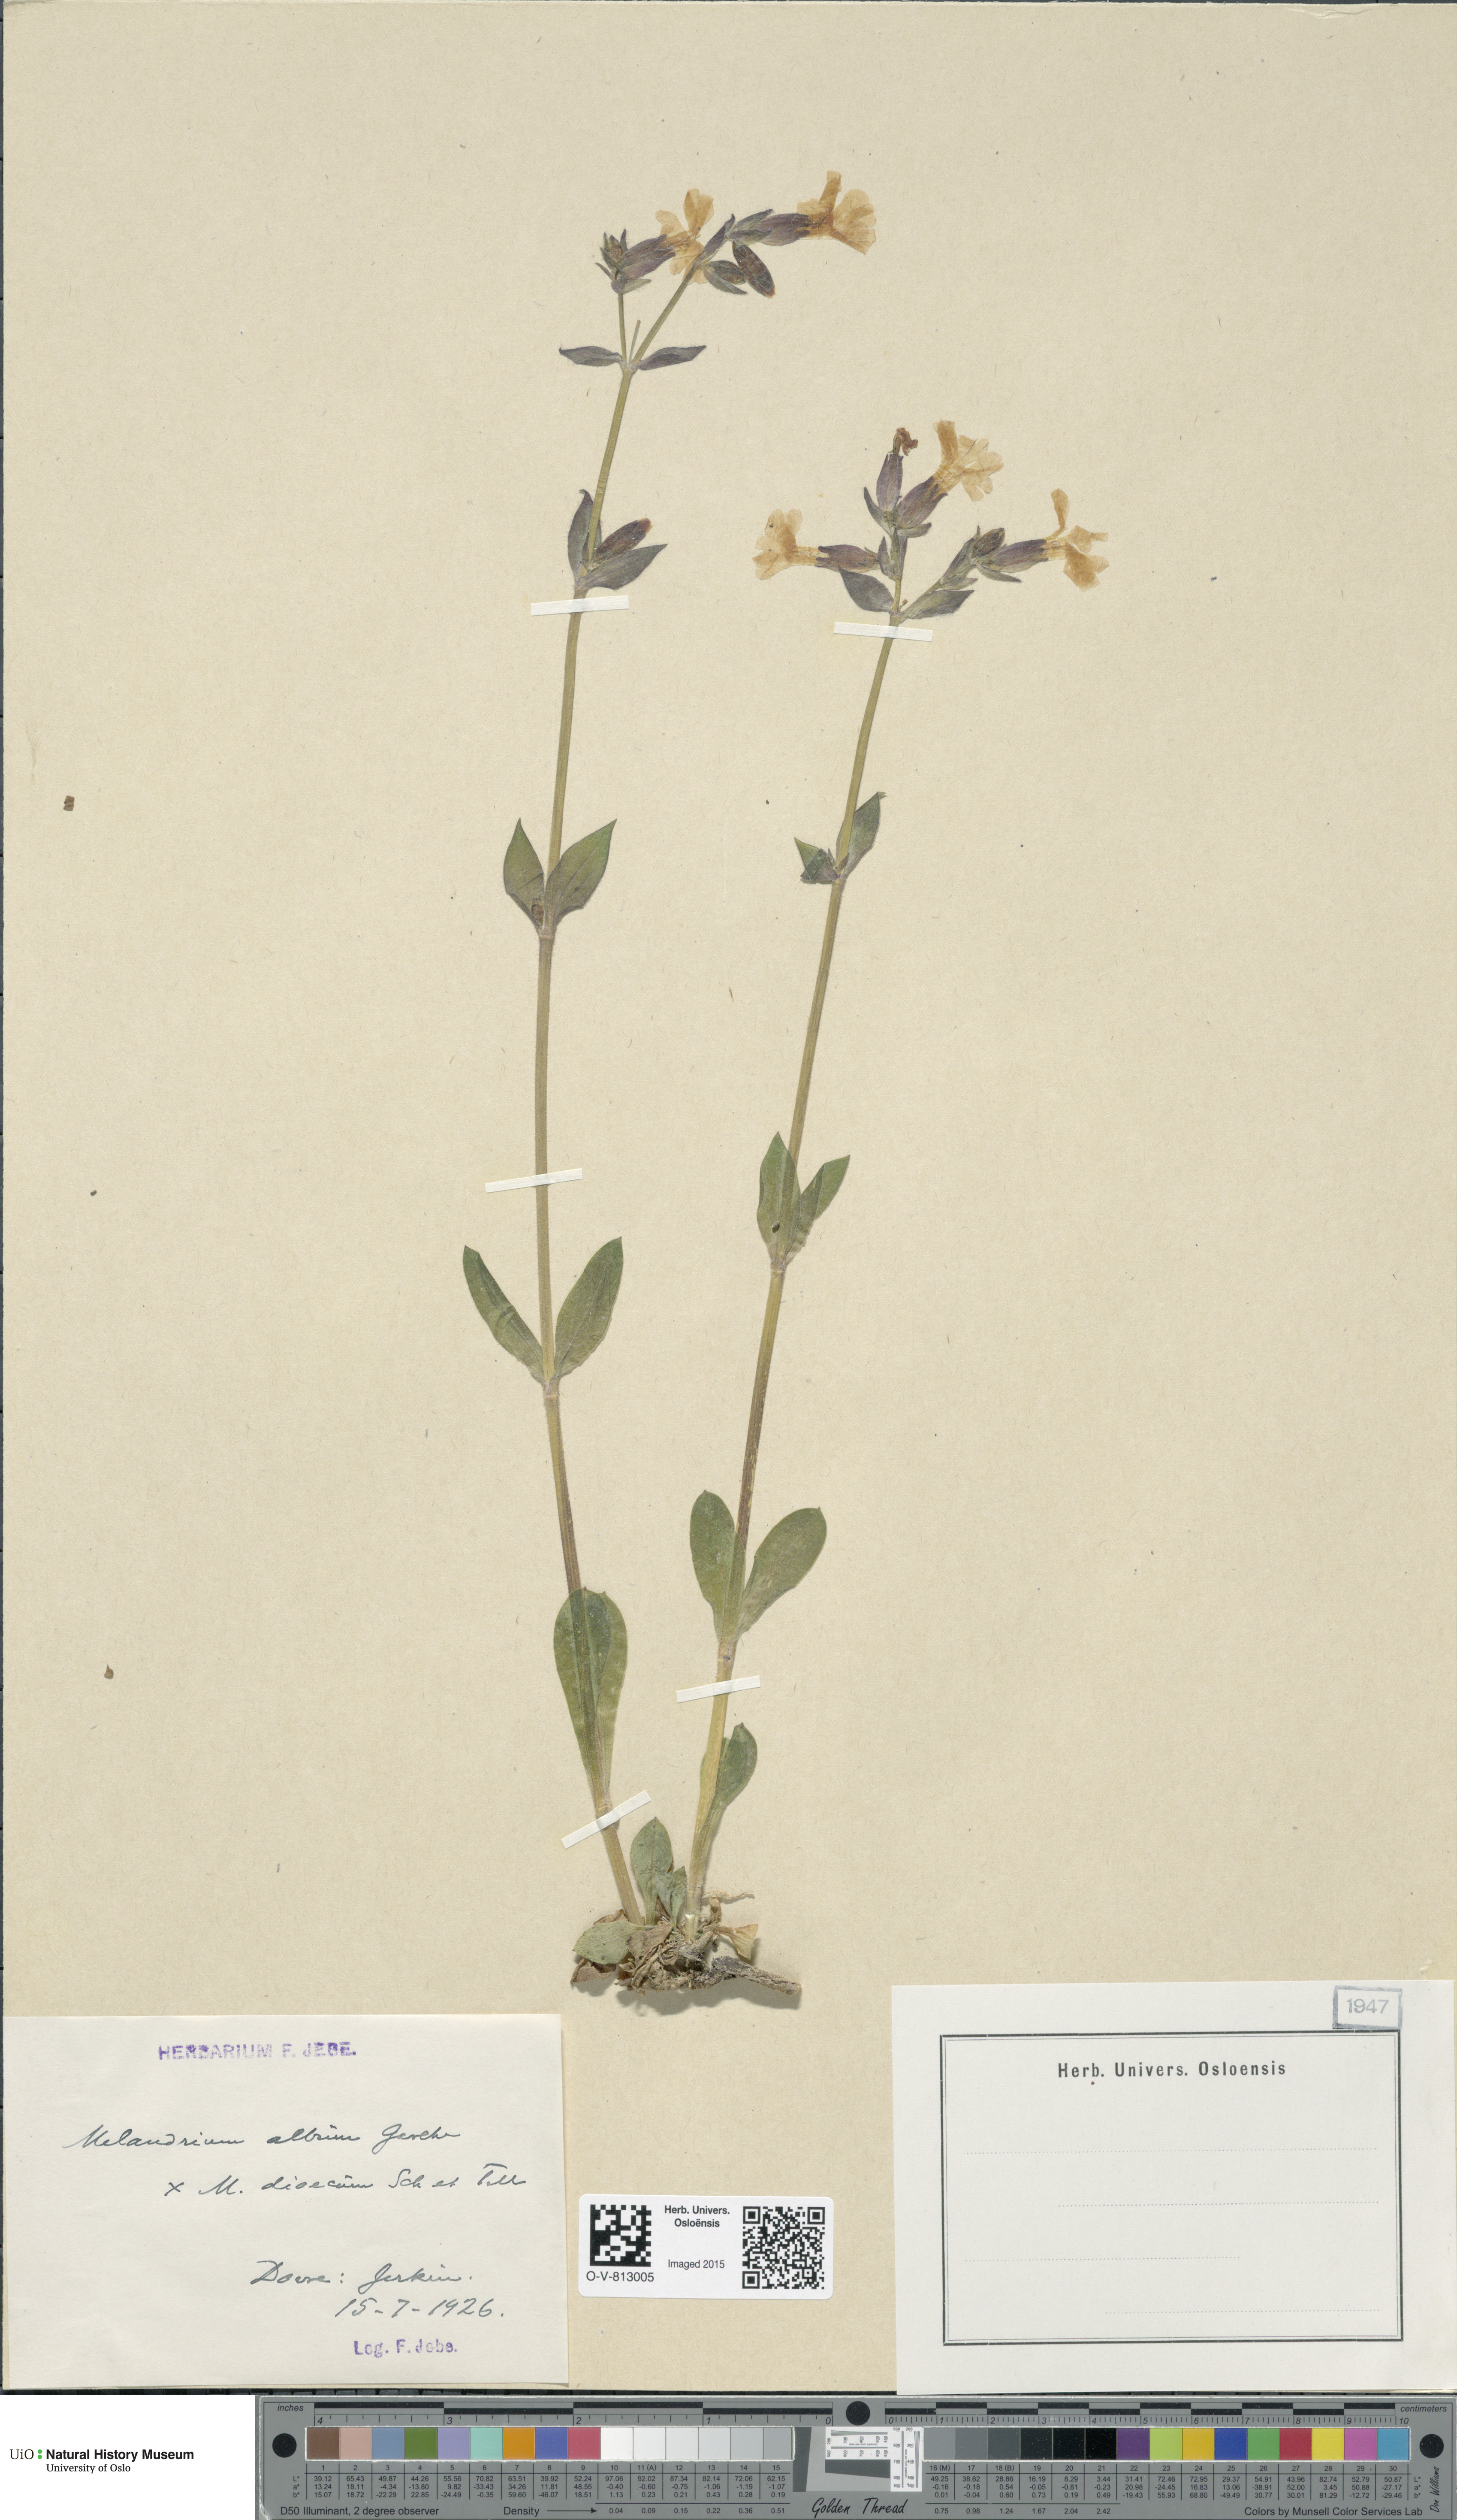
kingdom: Plantae
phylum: Tracheophyta
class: Magnoliopsida
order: Caryophyllales
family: Caryophyllaceae
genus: Silene
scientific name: Silene
